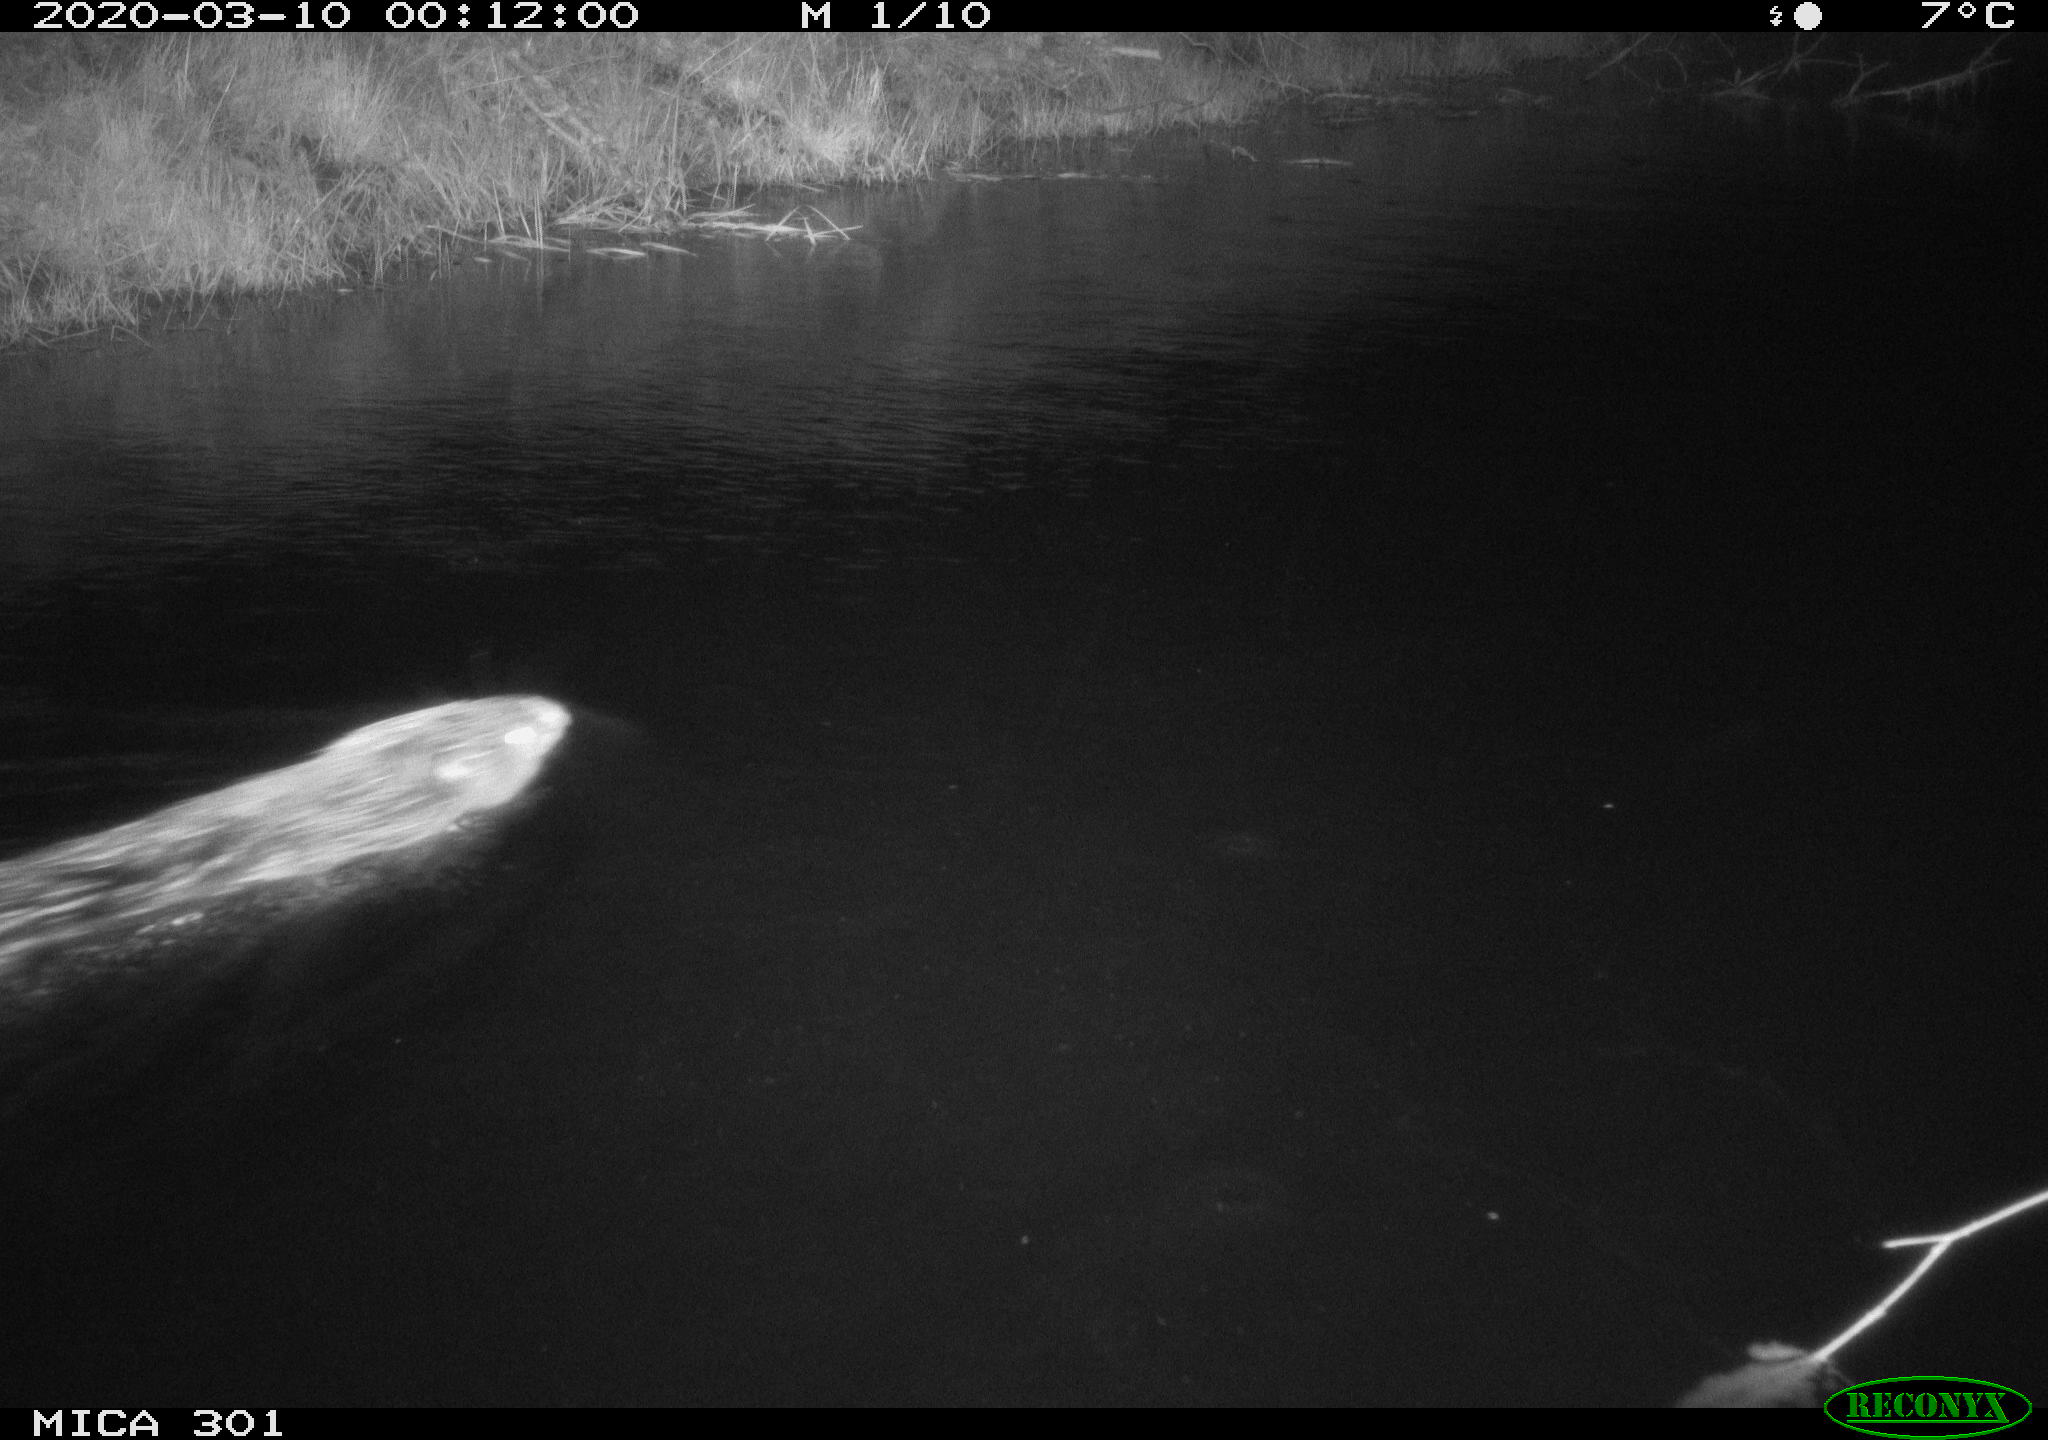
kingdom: Animalia
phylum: Chordata
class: Mammalia
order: Rodentia
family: Castoridae
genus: Castor
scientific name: Castor fiber
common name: Eurasian beaver
